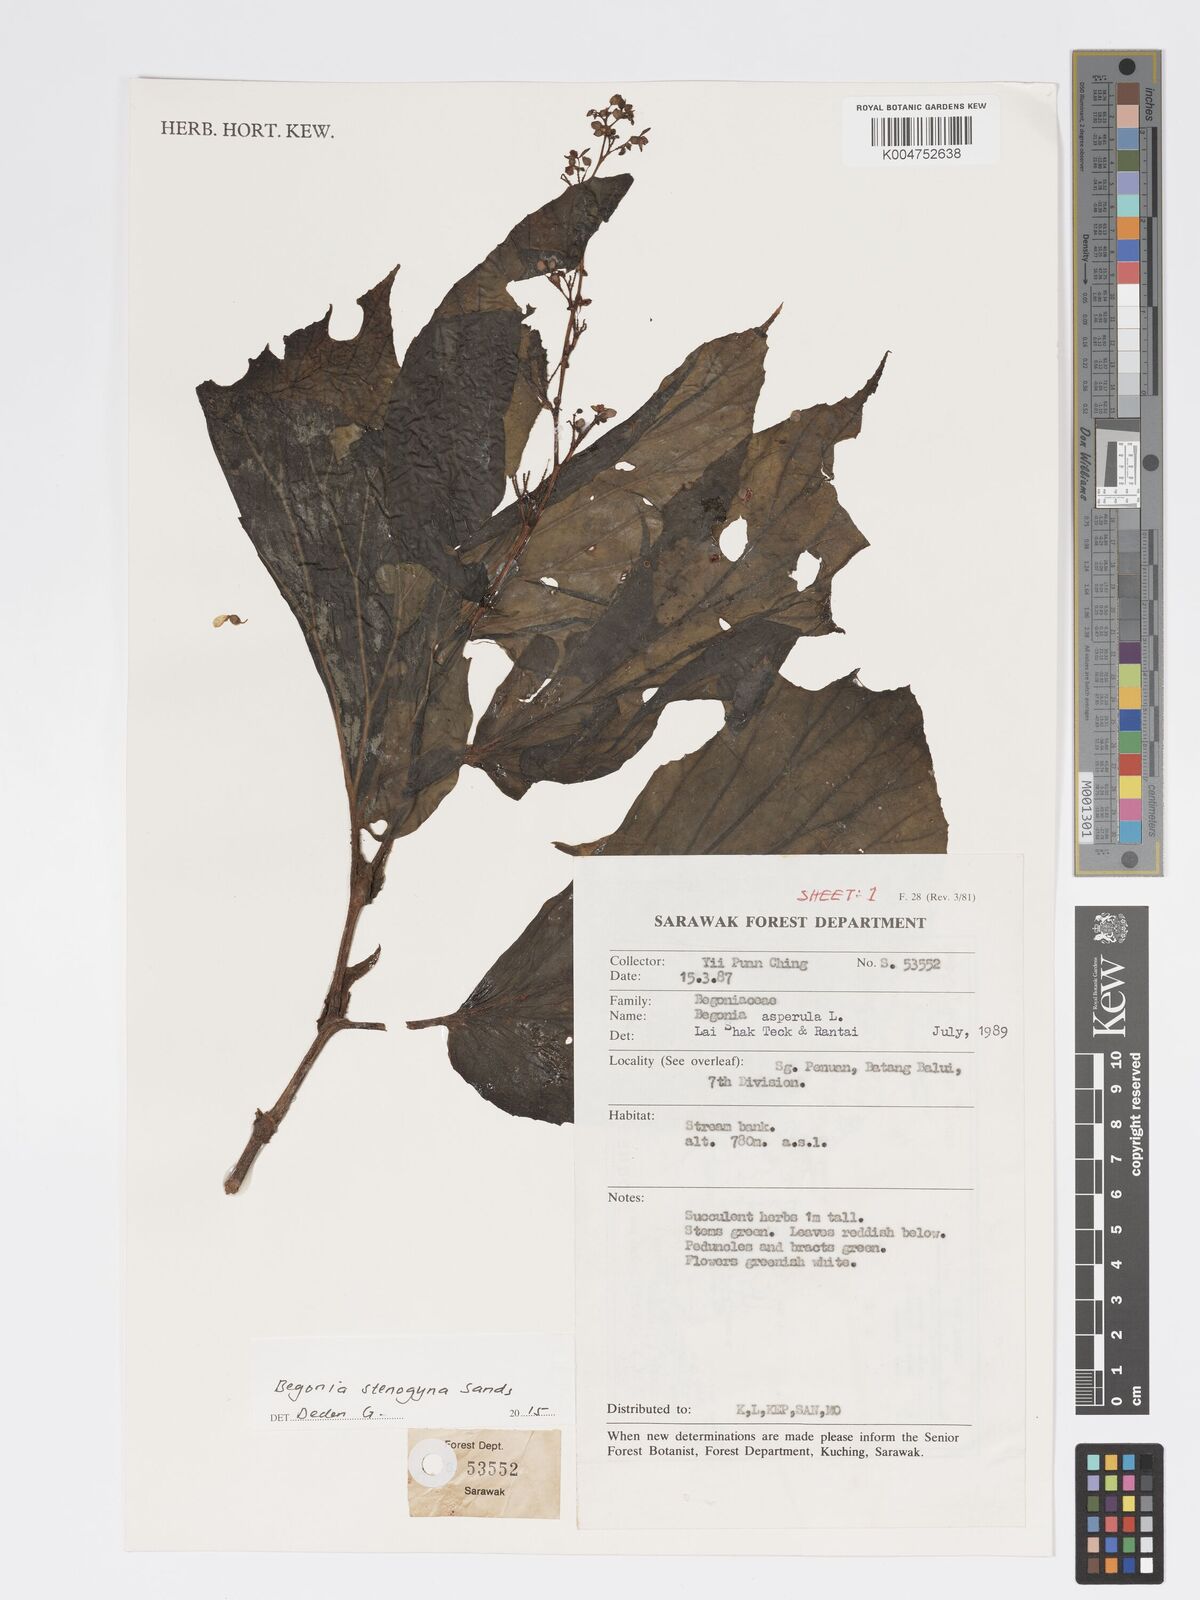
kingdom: Plantae
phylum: Tracheophyta
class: Magnoliopsida
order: Cucurbitales
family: Begoniaceae
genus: Begonia
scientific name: Begonia stenogyna
